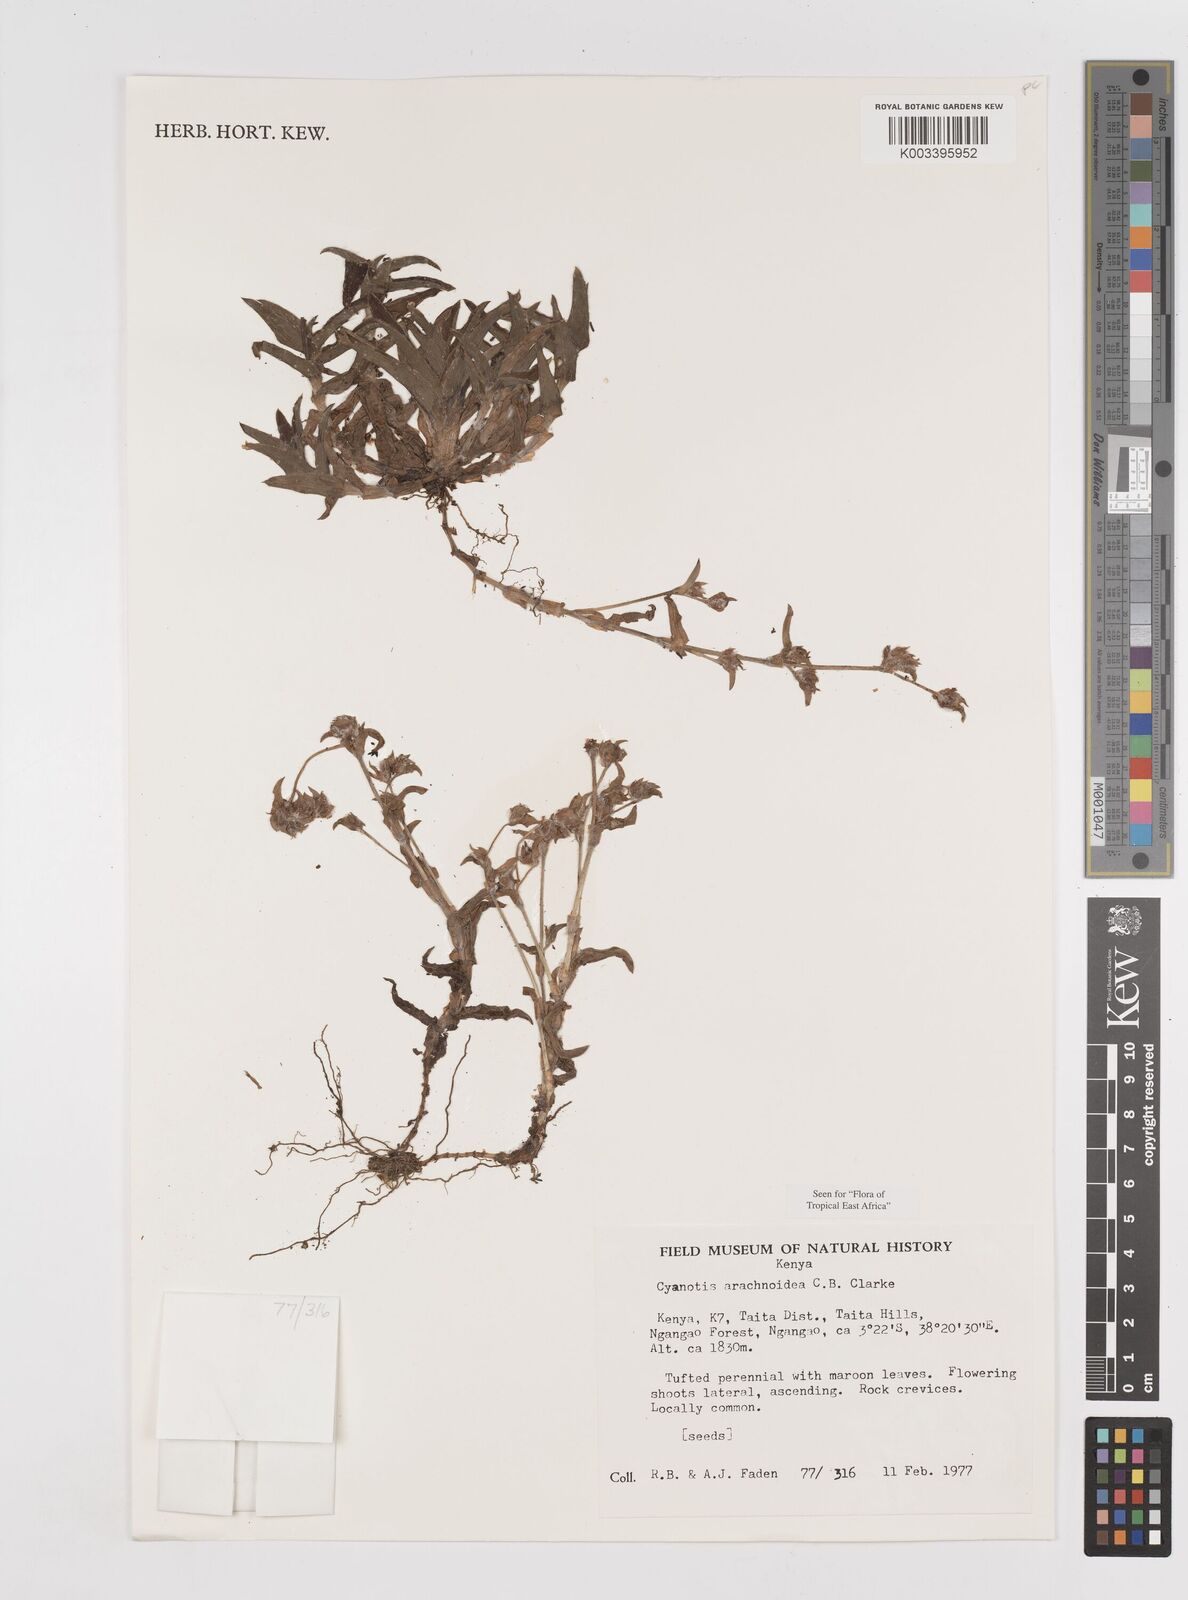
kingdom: Plantae
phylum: Tracheophyta
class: Liliopsida
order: Commelinales
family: Commelinaceae
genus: Cyanotis
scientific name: Cyanotis arachnoidea
